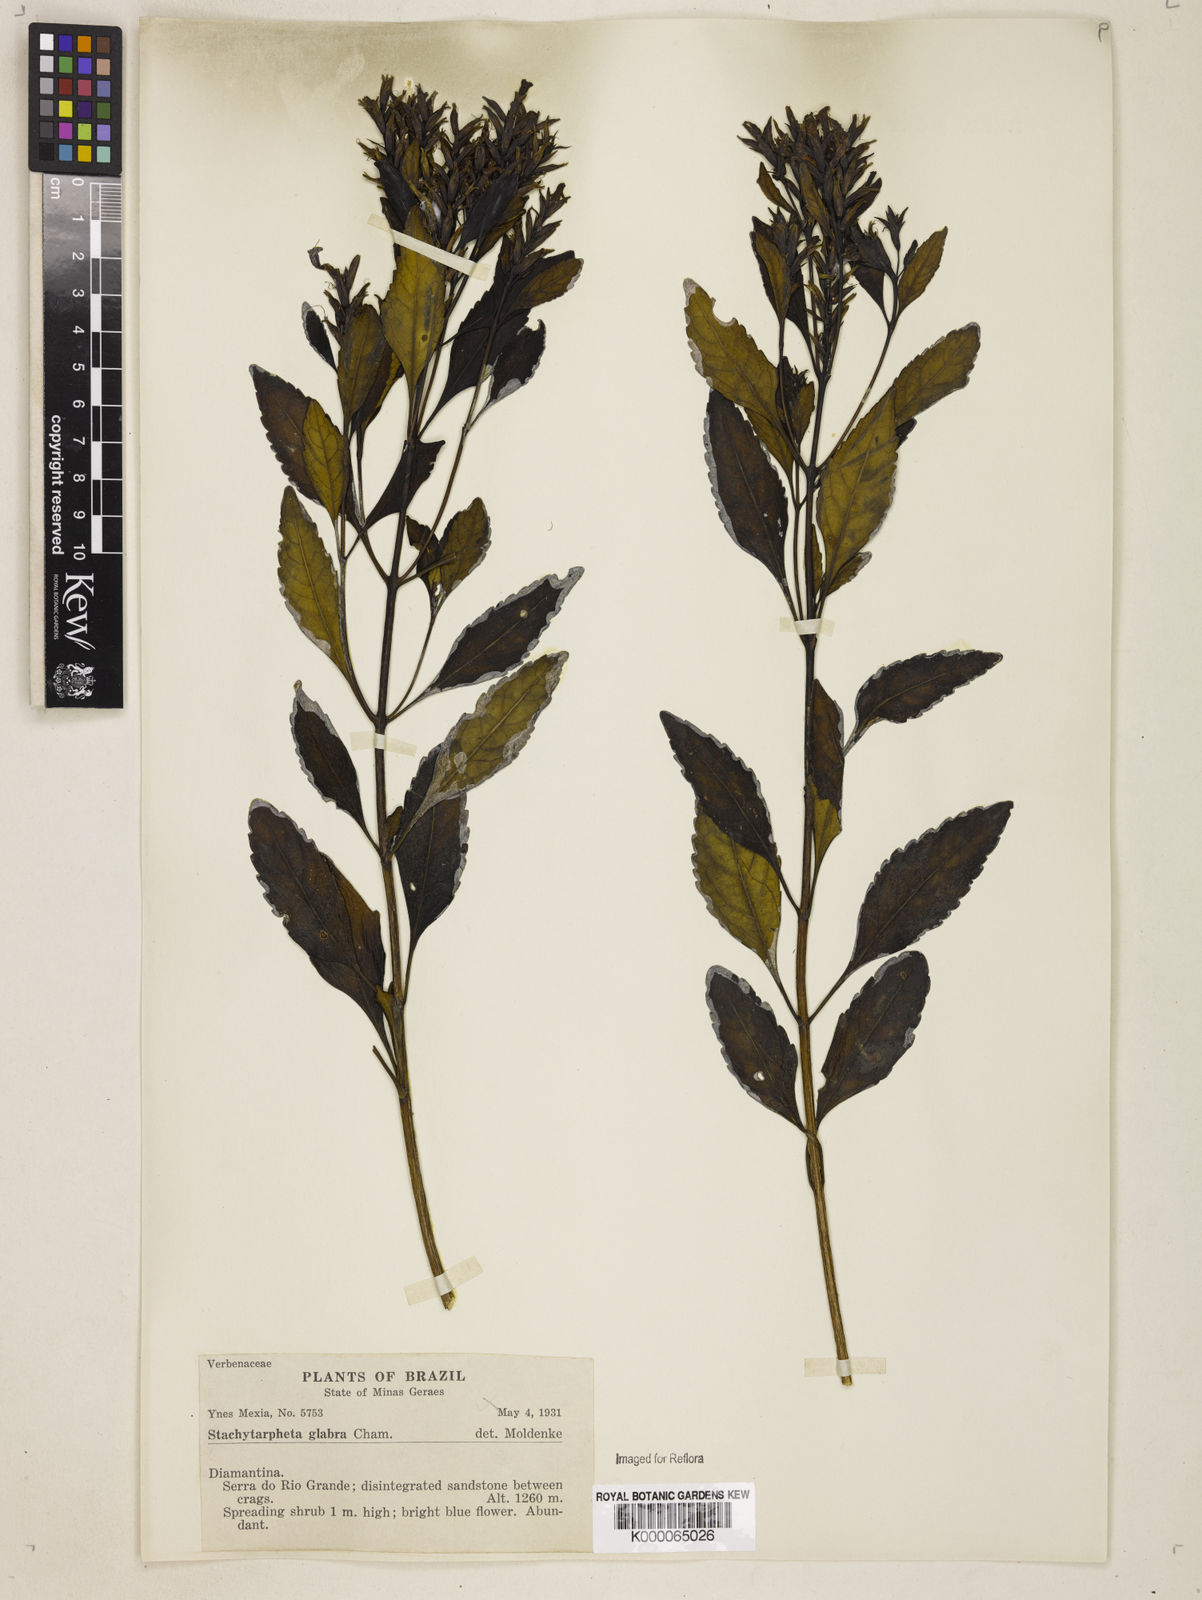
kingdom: Plantae
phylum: Tracheophyta
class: Magnoliopsida
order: Lamiales
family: Verbenaceae
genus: Stachytarpheta
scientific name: Stachytarpheta glabra
